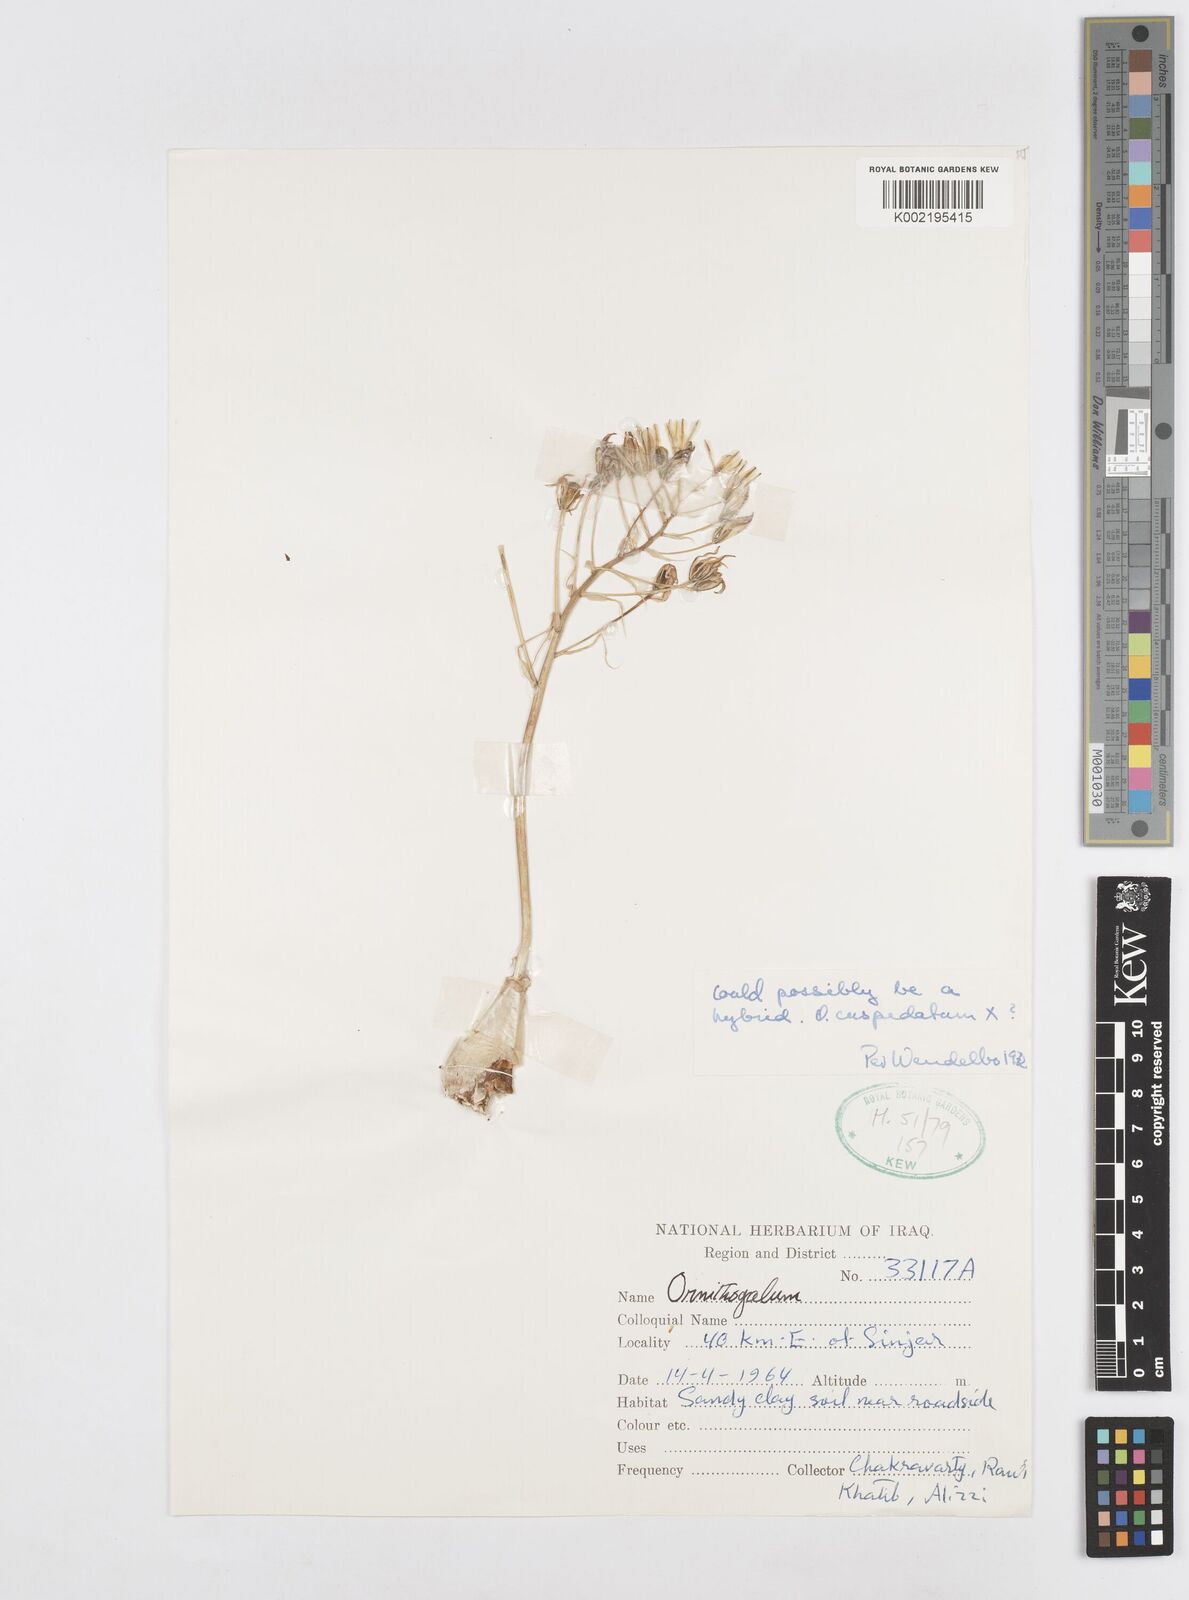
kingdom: Plantae
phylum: Tracheophyta
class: Liliopsida
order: Asparagales
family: Asparagaceae
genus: Ornithogalum
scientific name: Ornithogalum
